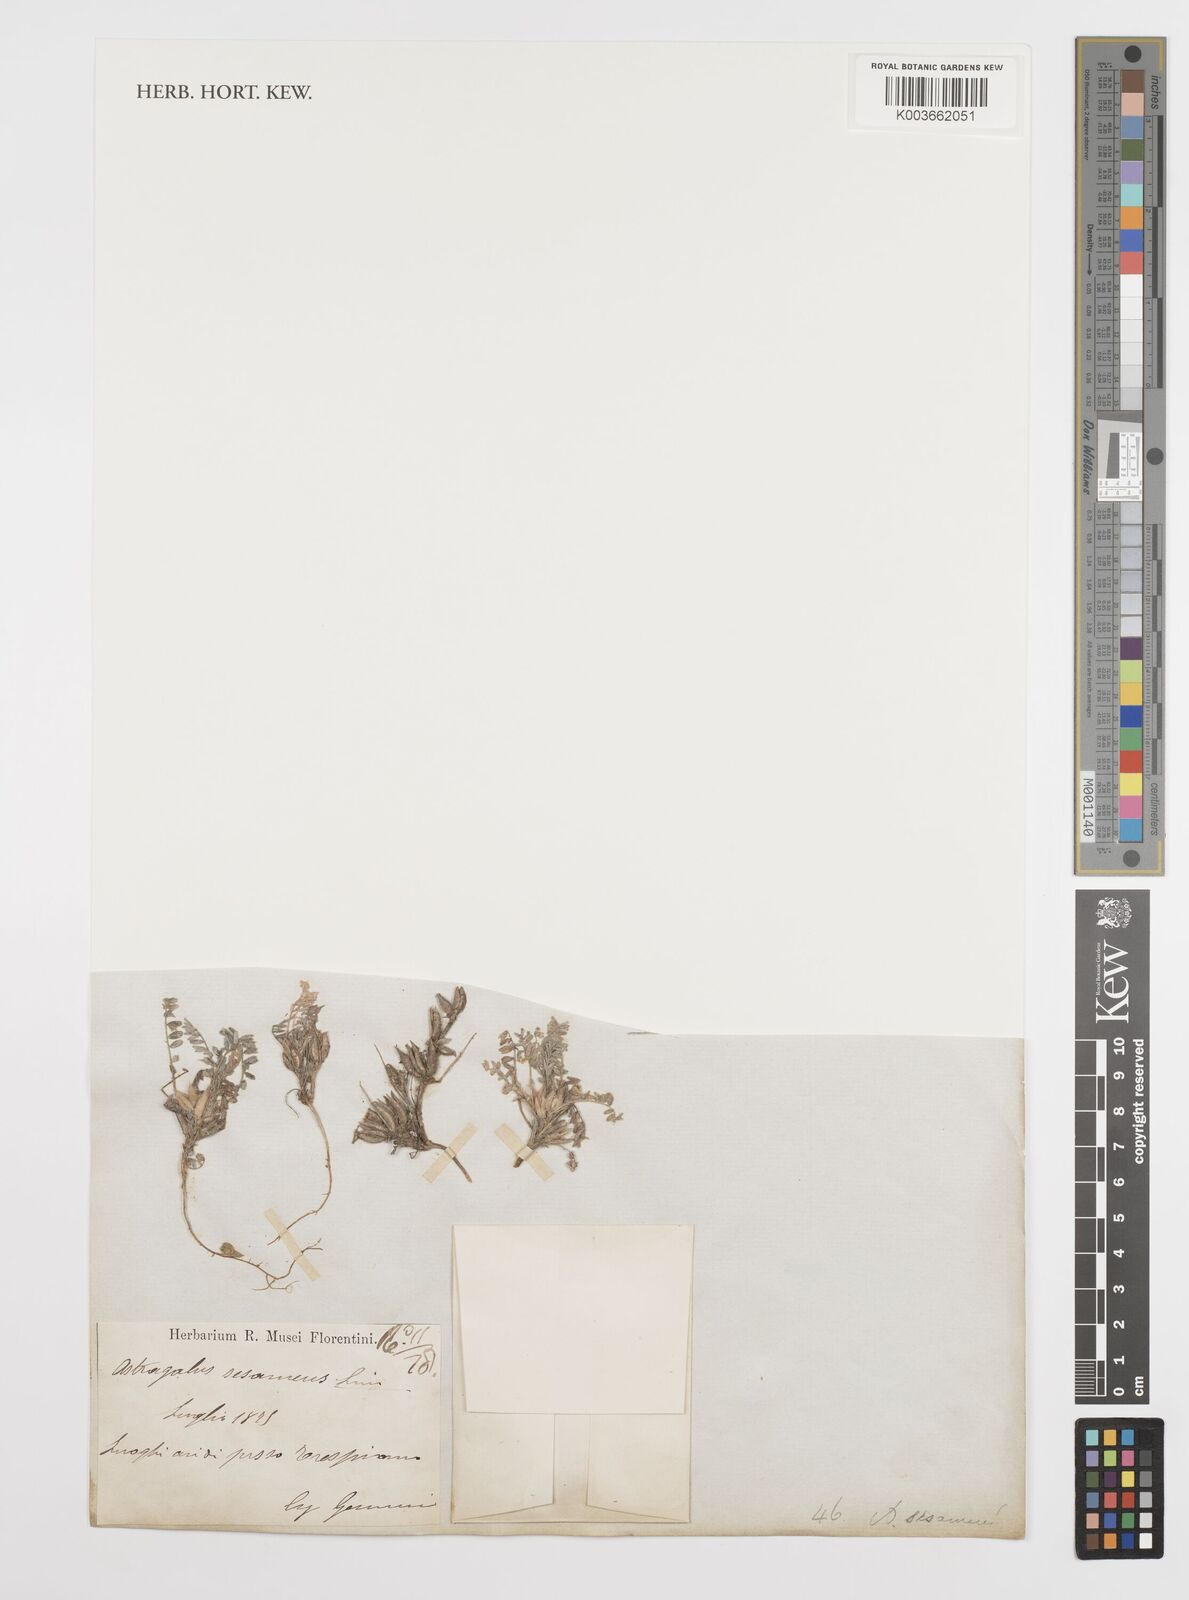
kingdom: Plantae
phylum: Tracheophyta
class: Magnoliopsida
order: Fabales
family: Fabaceae
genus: Astragalus
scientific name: Astragalus sesameus
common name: Purple milk-vetch
